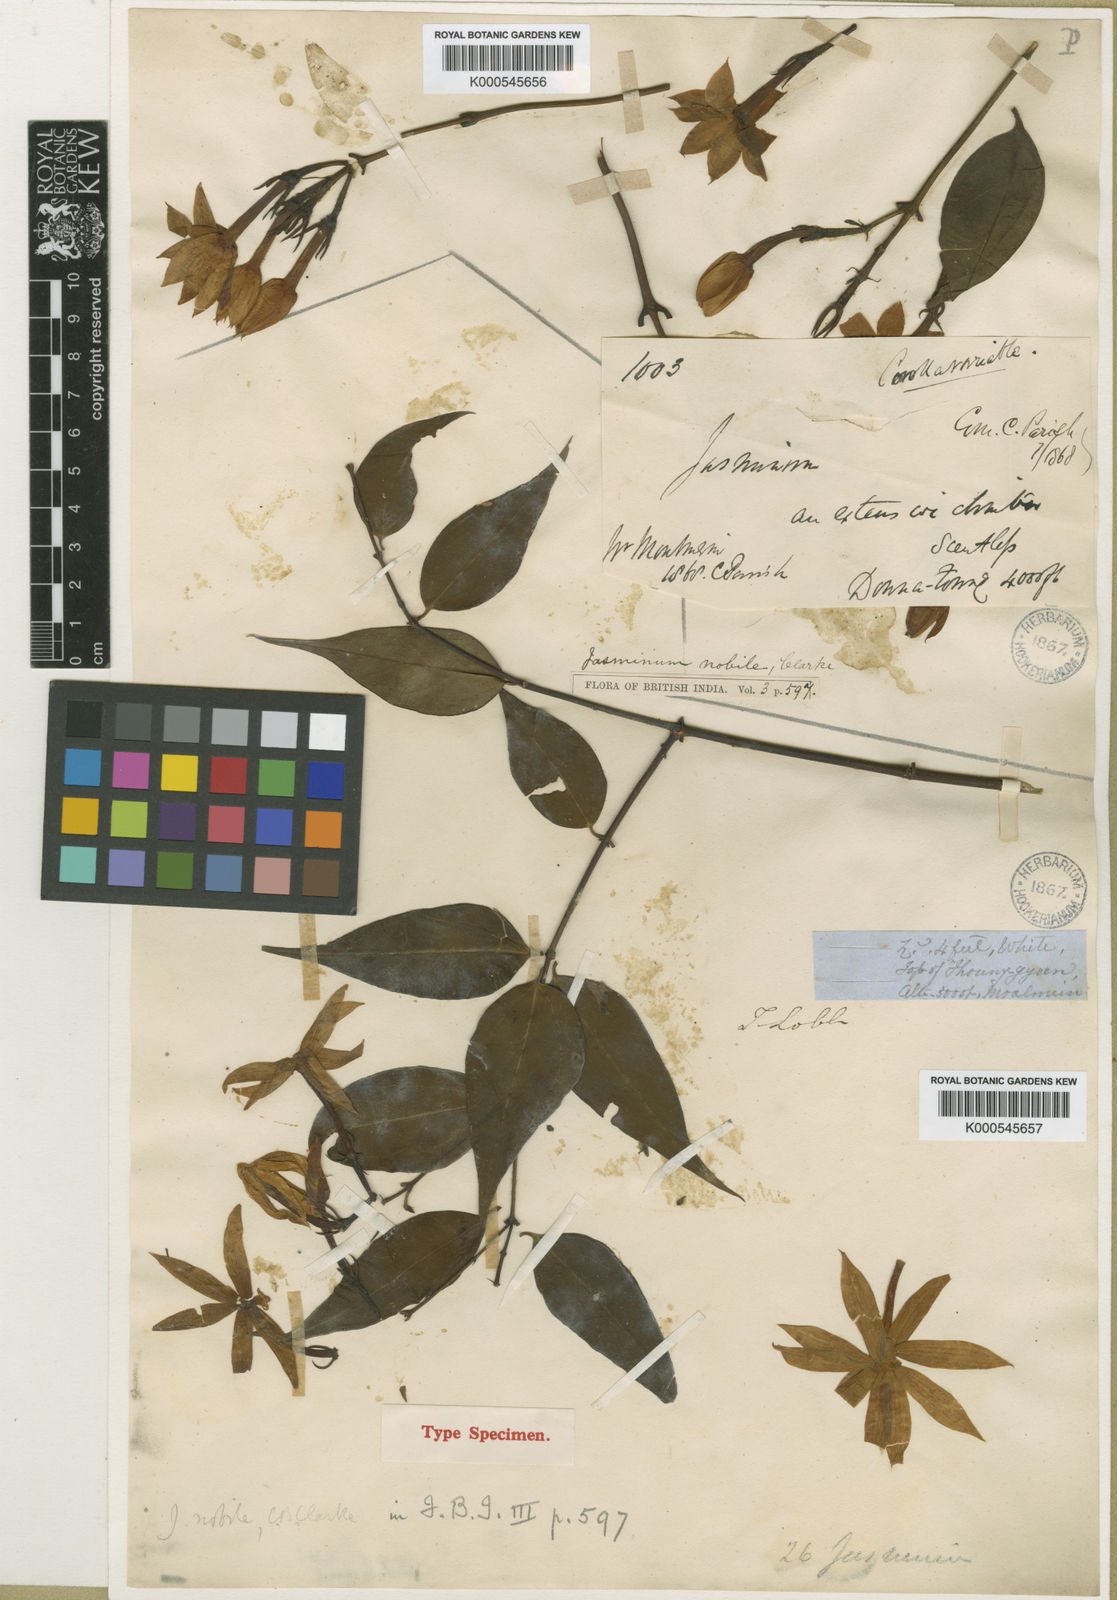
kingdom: Plantae
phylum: Tracheophyta
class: Magnoliopsida
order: Lamiales
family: Oleaceae
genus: Jasminum
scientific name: Jasminum nobile
